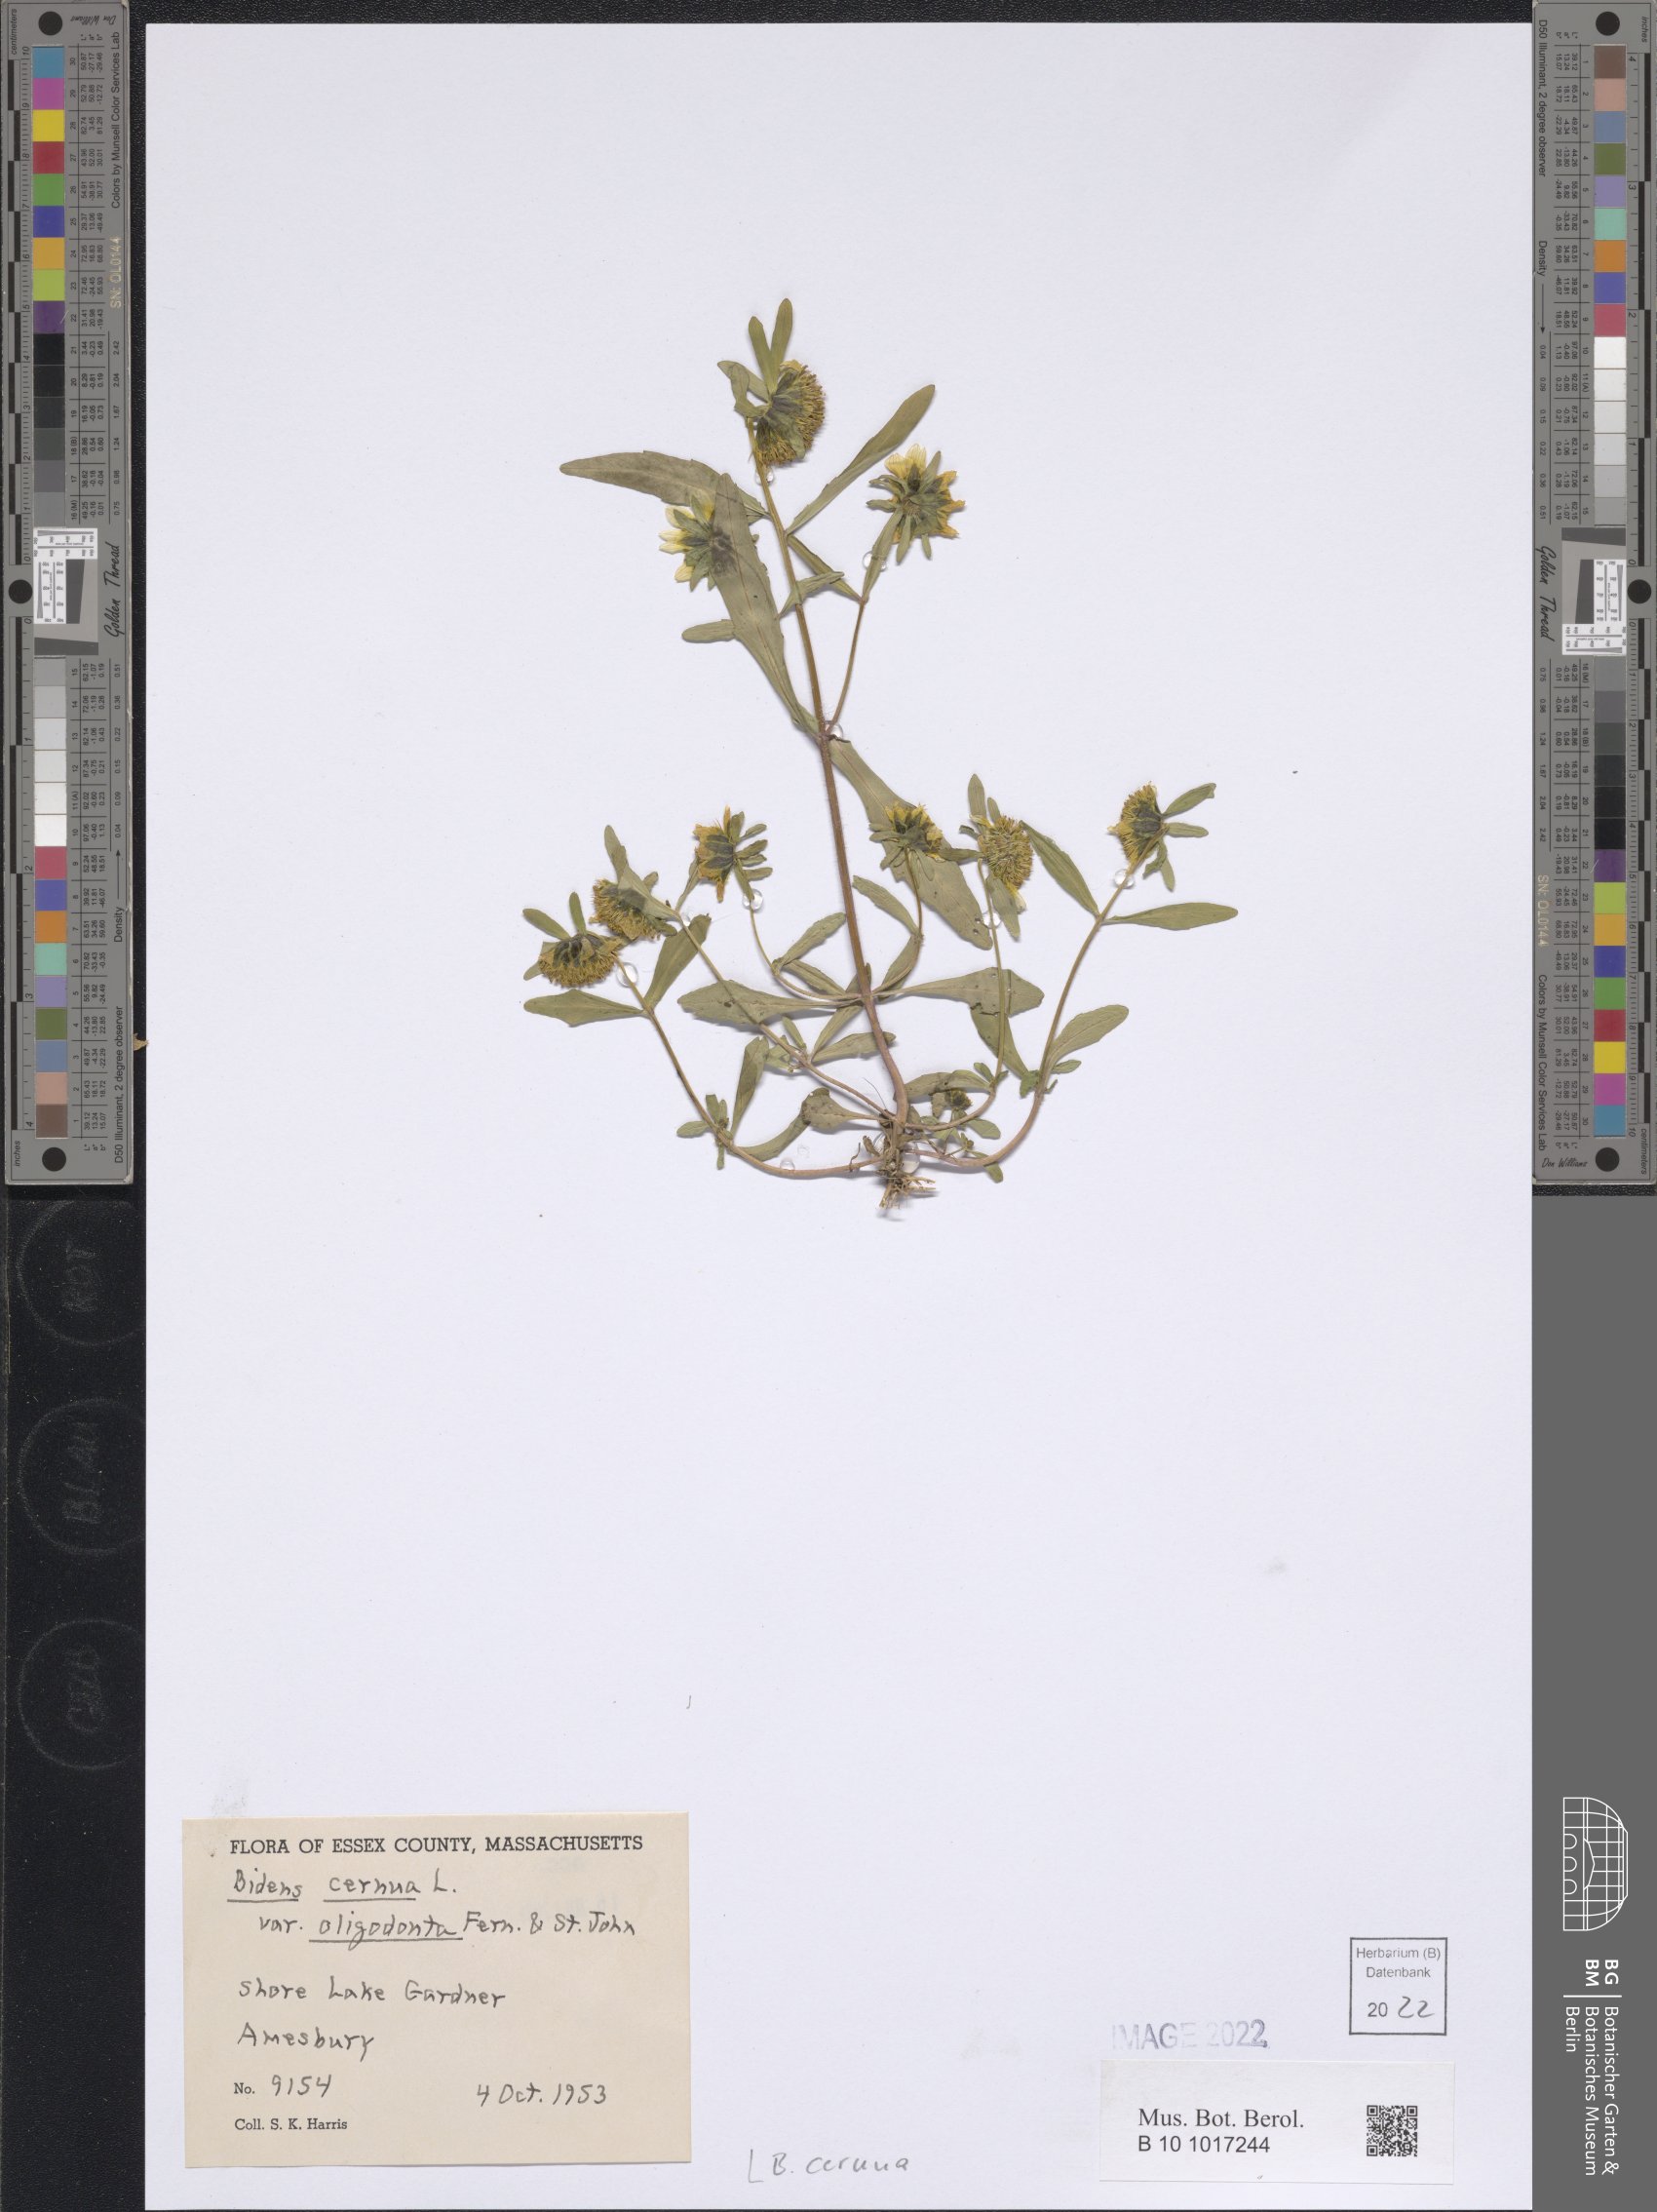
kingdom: Plantae
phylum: Tracheophyta
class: Magnoliopsida
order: Asterales
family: Asteraceae
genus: Bidens
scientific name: Bidens cernua
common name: Nodding bur-marigold
